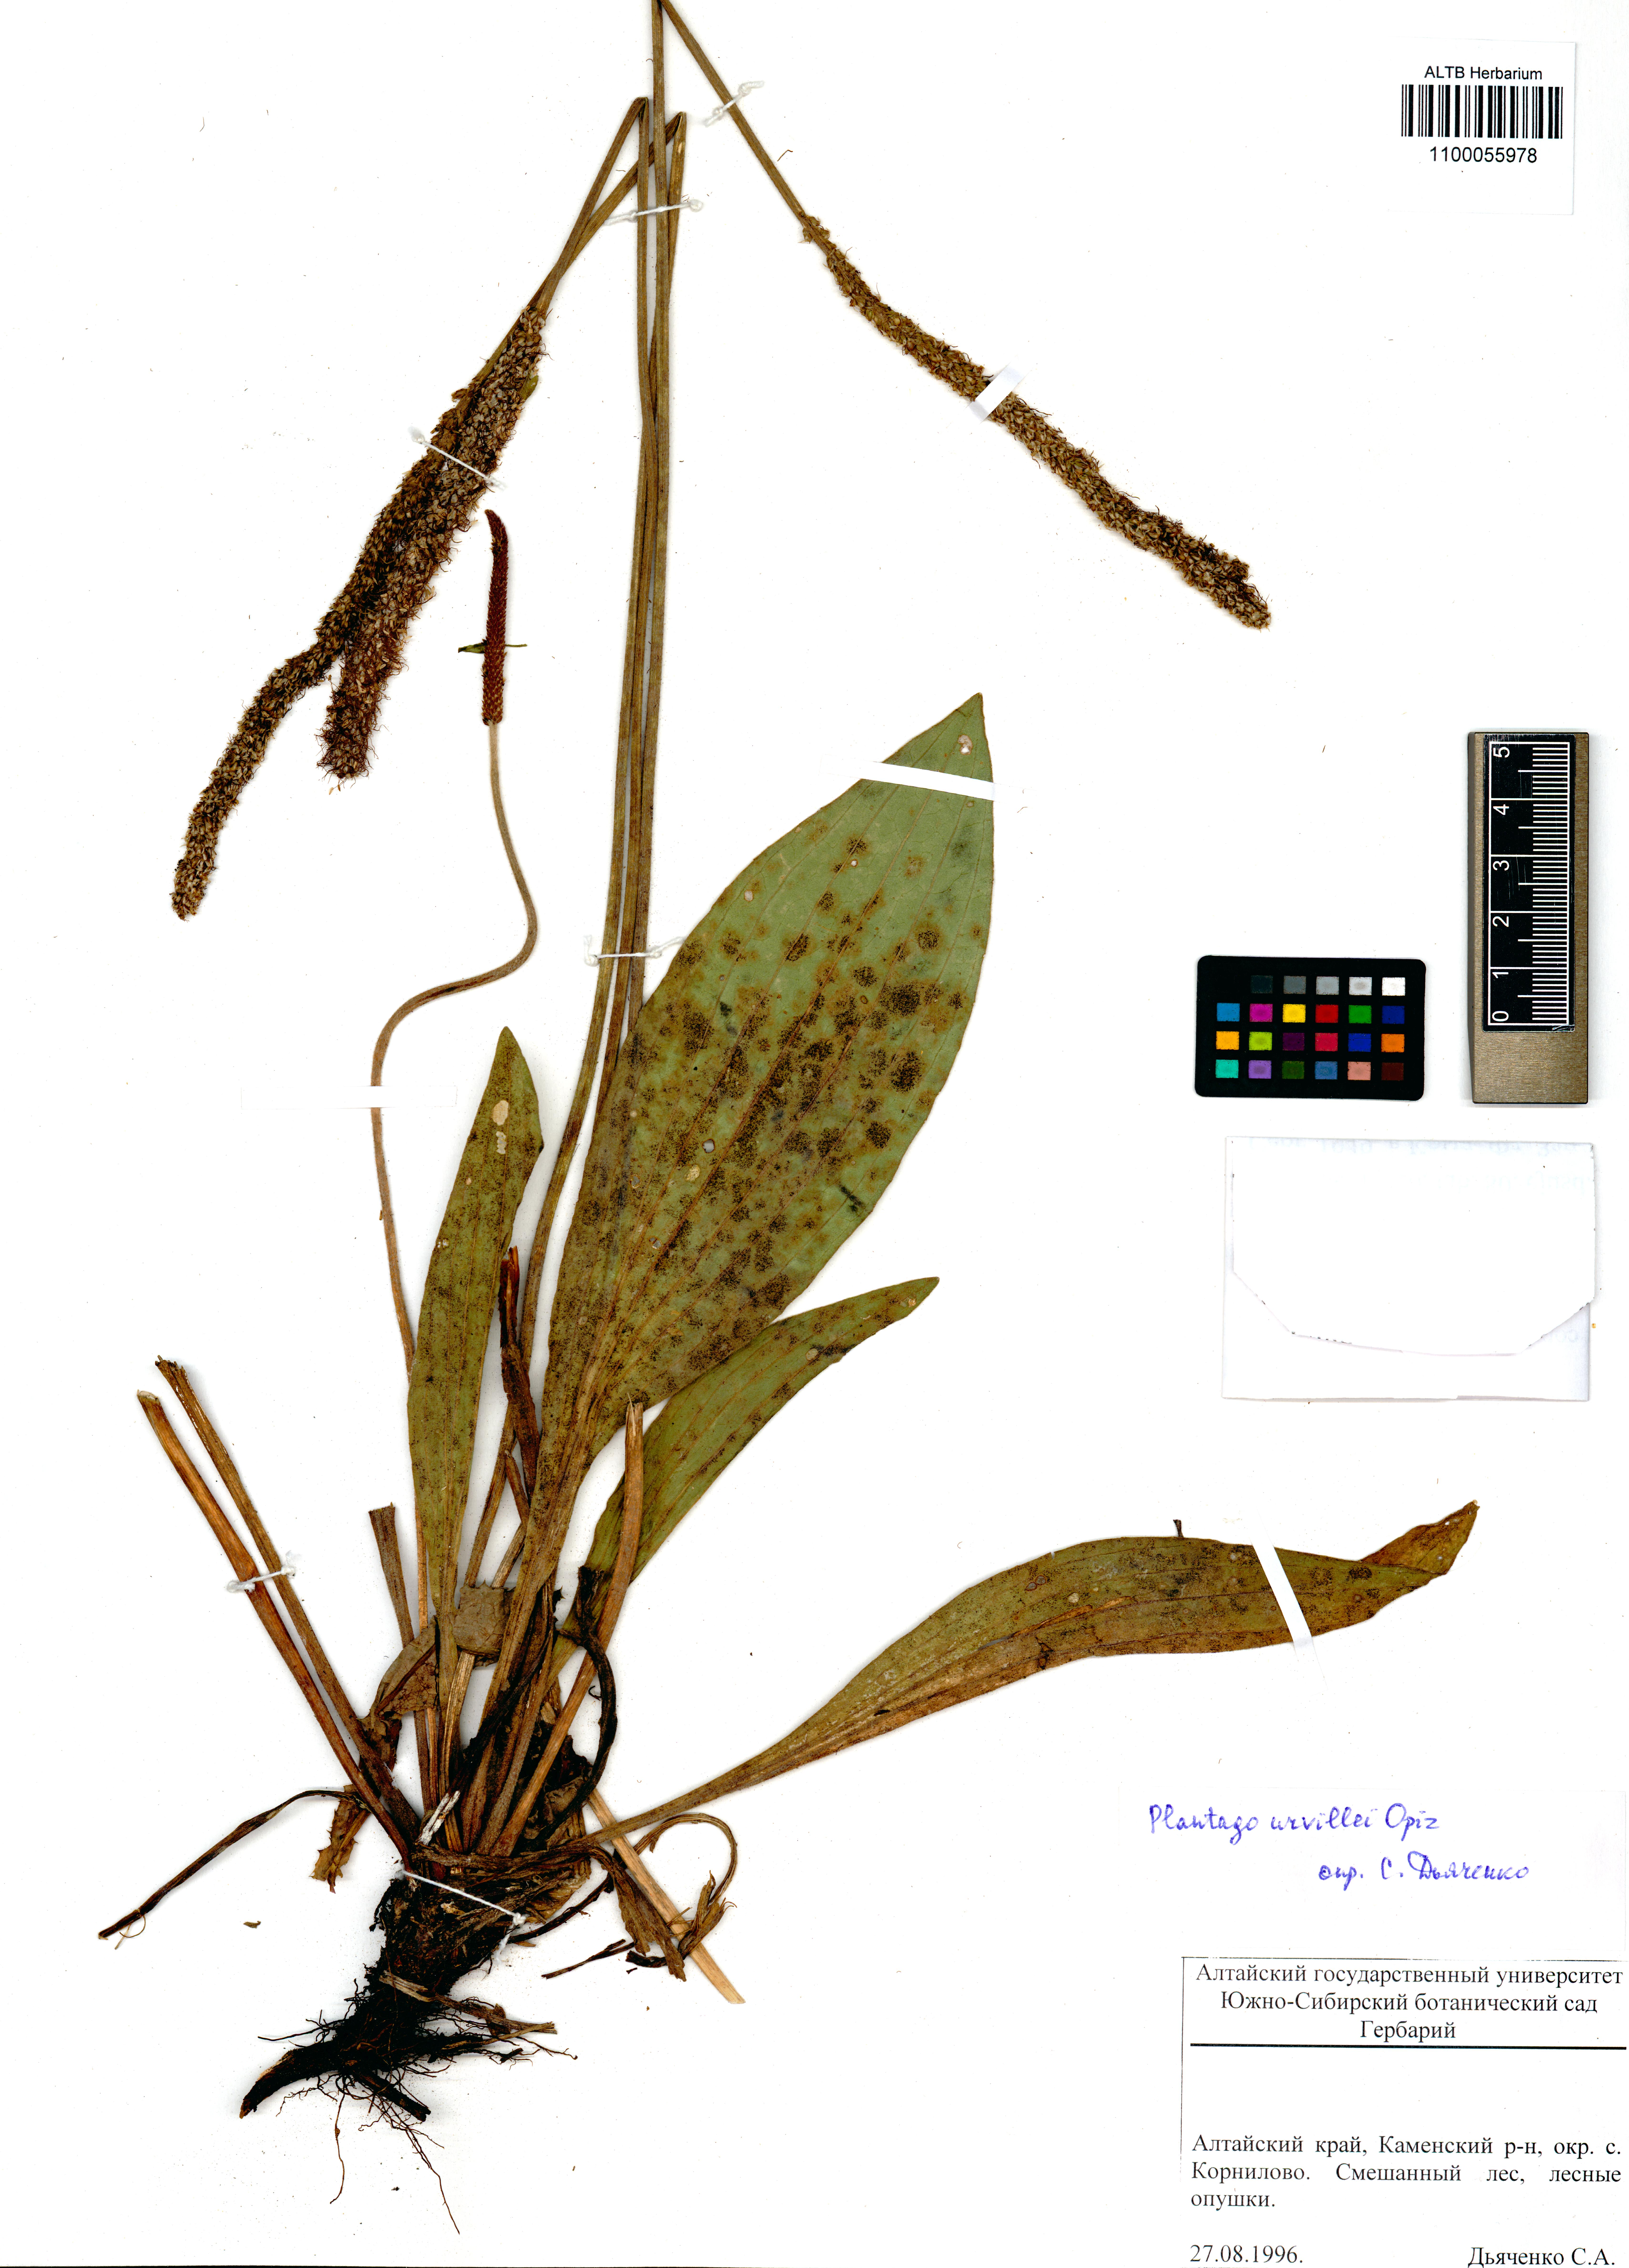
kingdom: Plantae
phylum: Tracheophyta
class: Magnoliopsida
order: Lamiales
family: Plantaginaceae
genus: Plantago
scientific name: Plantago urvillei
